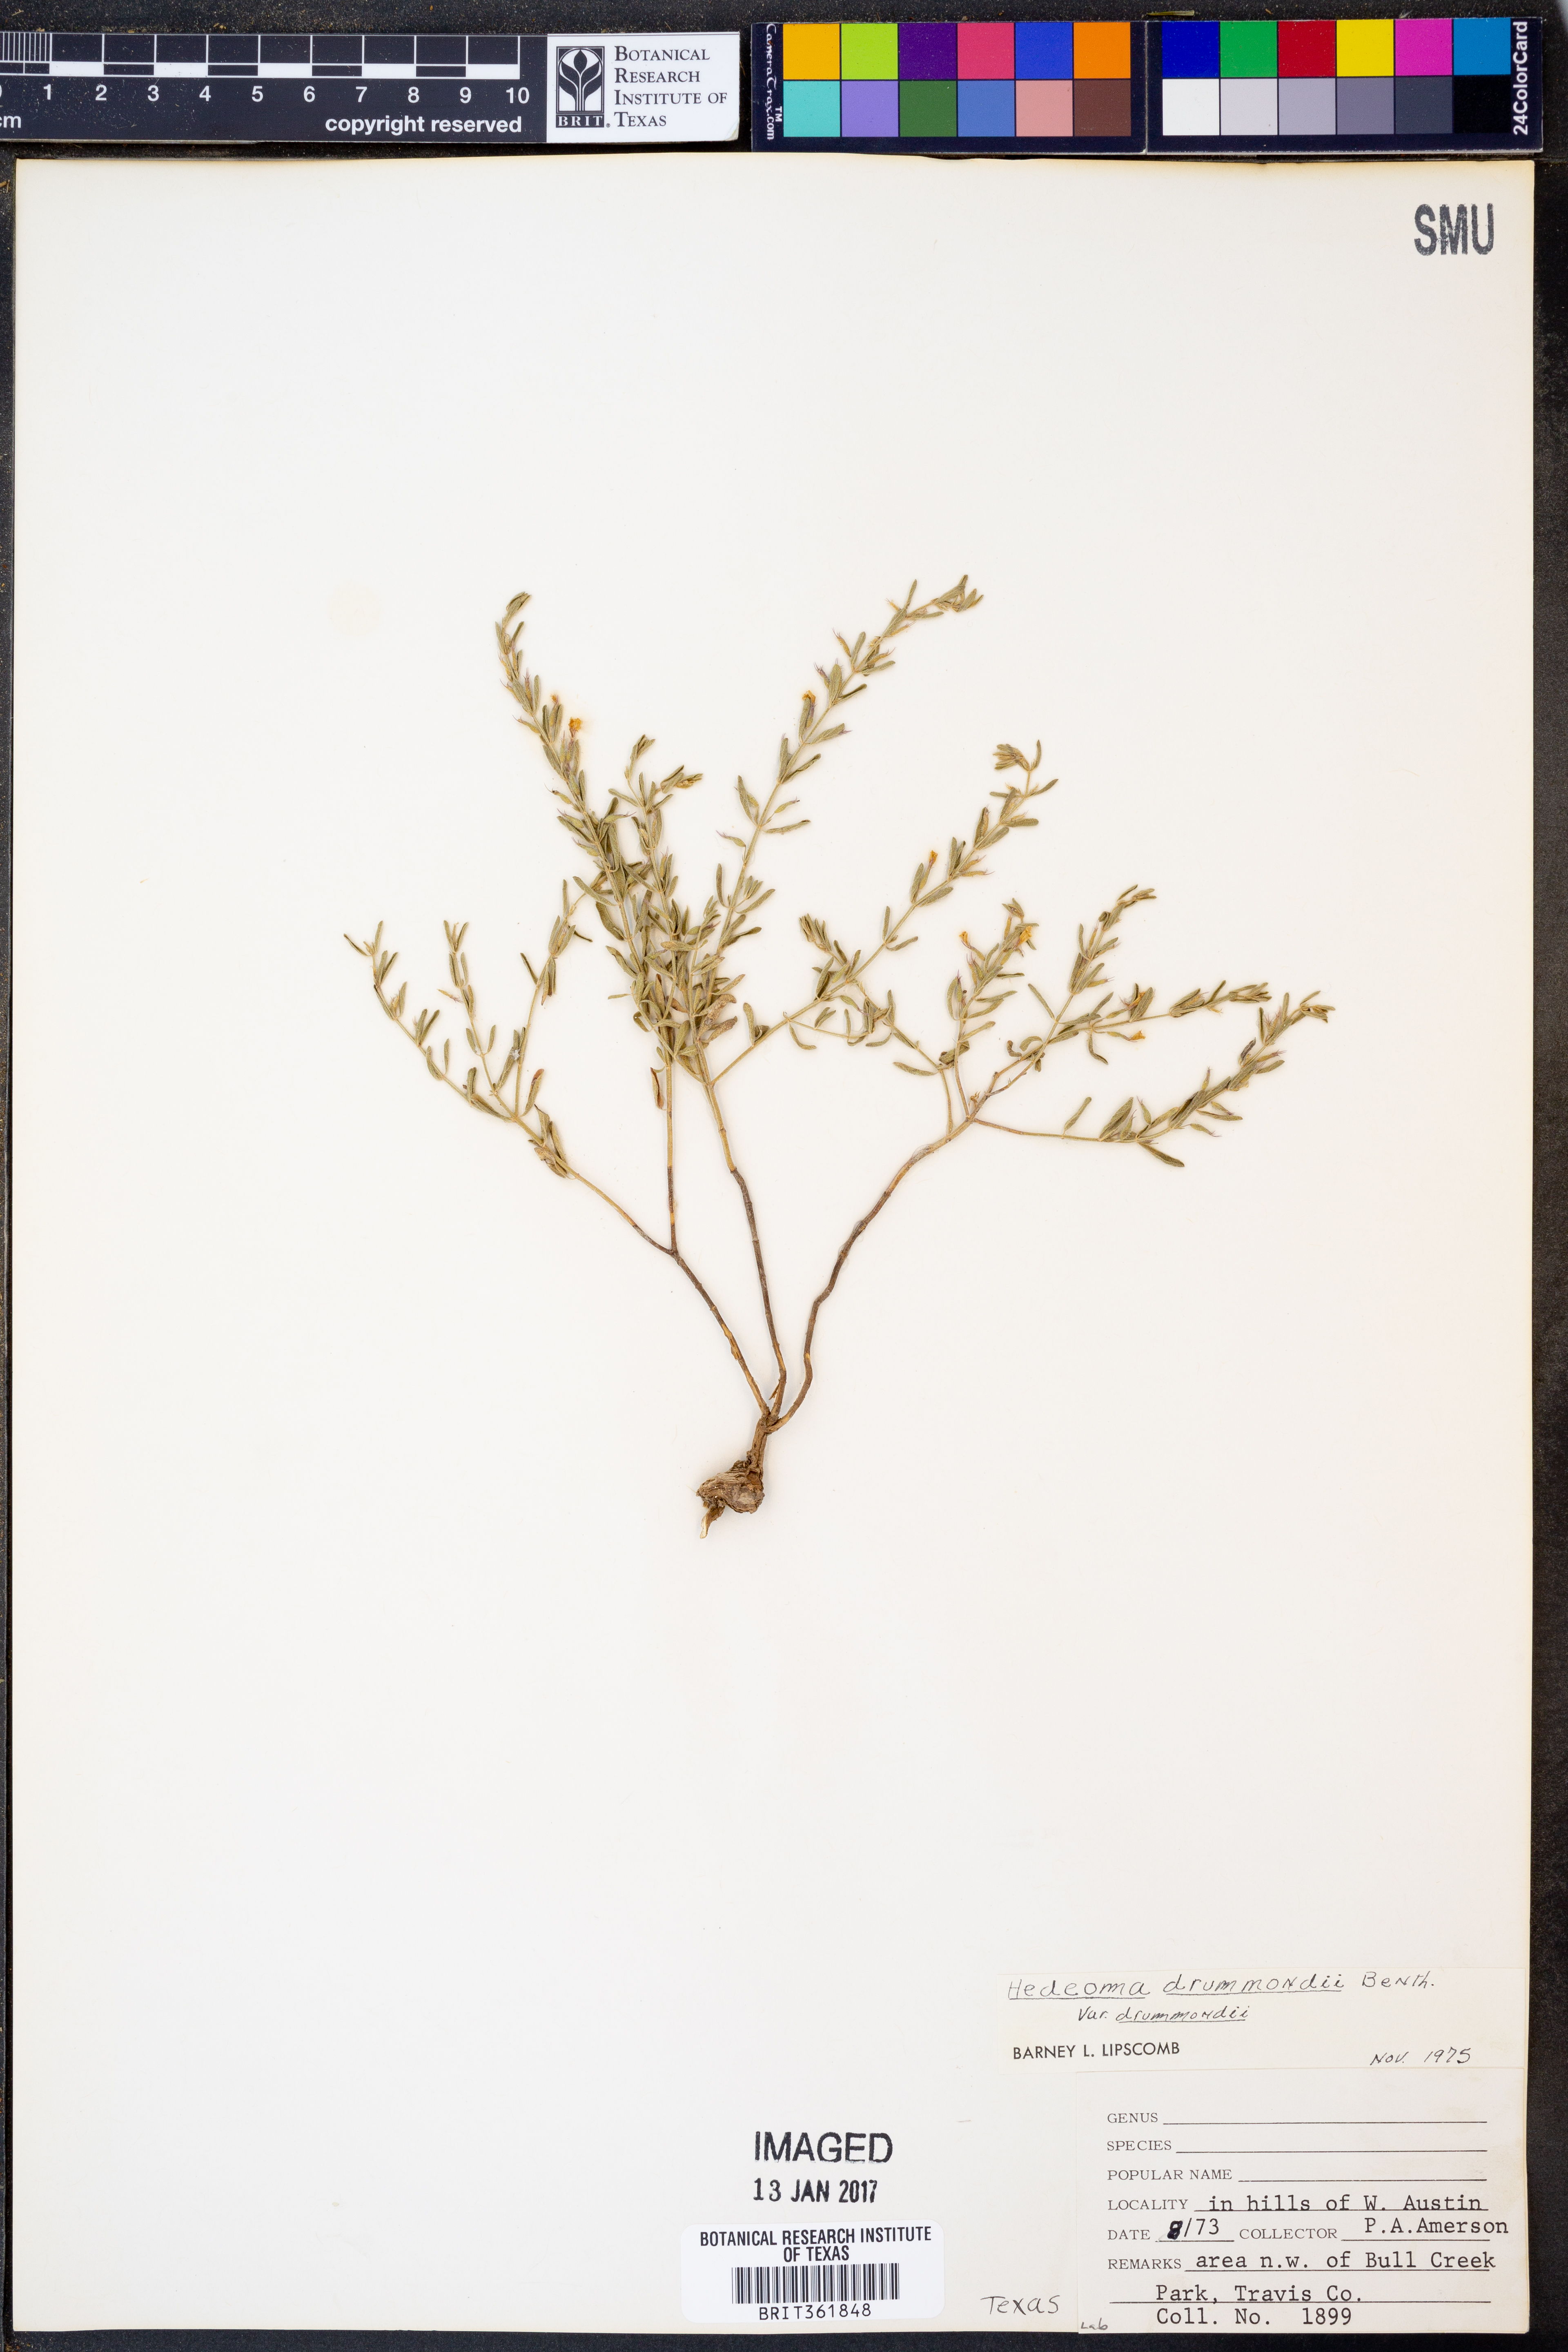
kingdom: Plantae
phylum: Tracheophyta
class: Magnoliopsida
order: Lamiales
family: Lamiaceae
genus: Hedeoma
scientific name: Hedeoma drummondii
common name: New mexico pennyroyal
